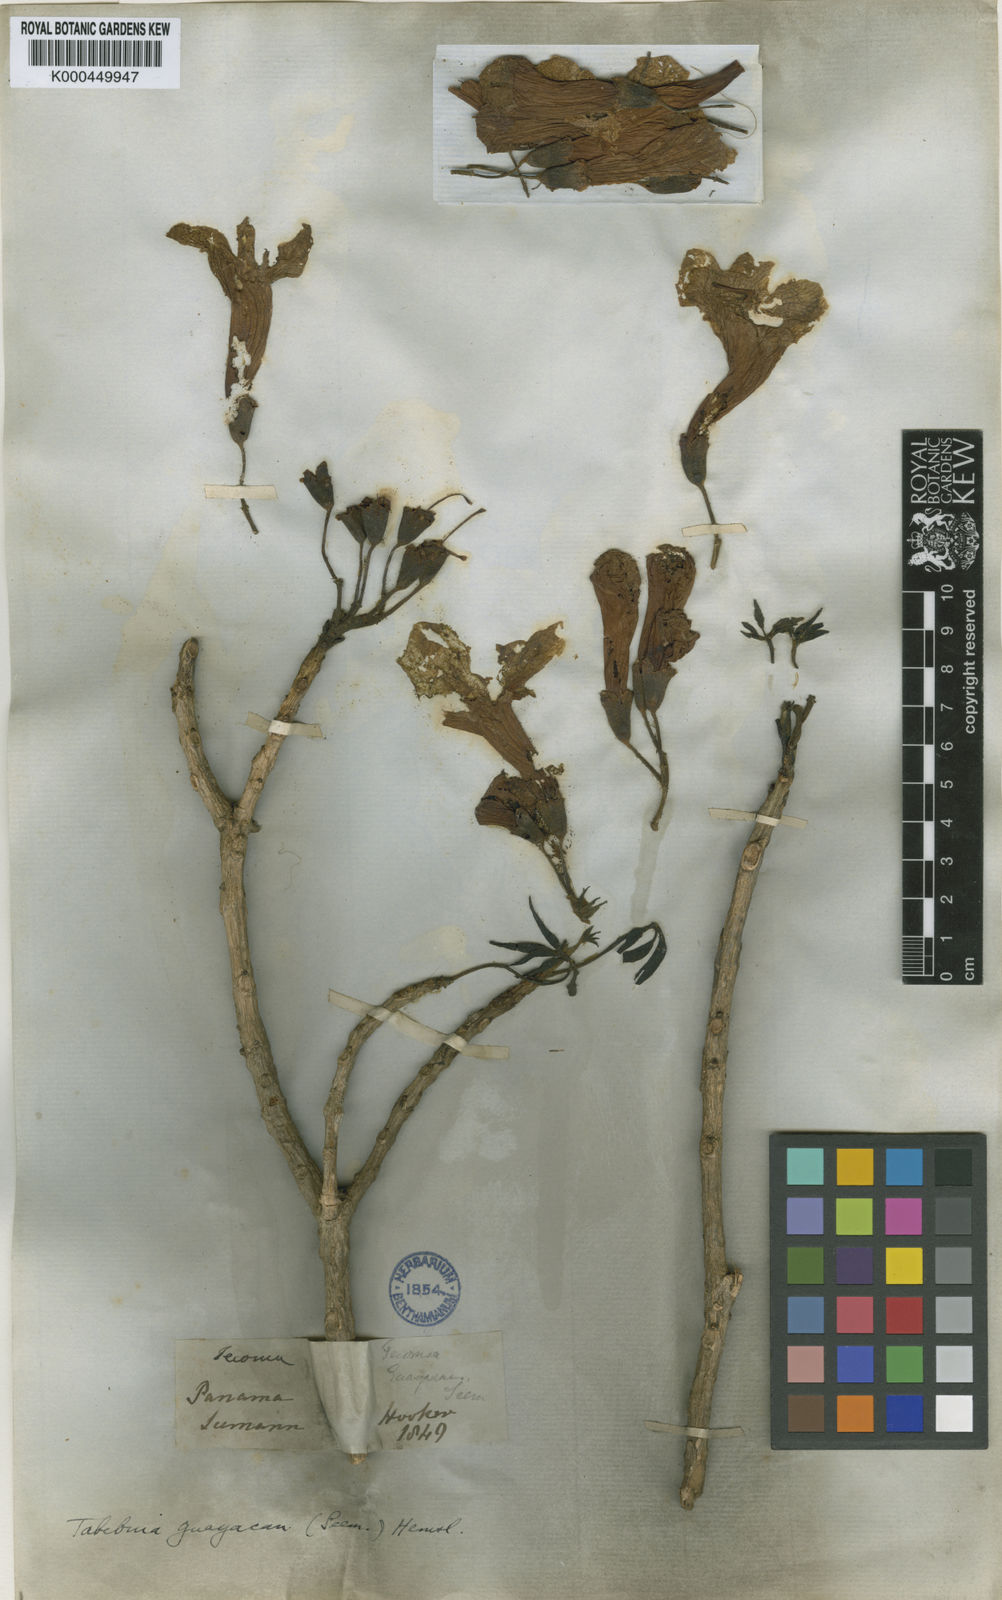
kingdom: Plantae
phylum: Tracheophyta
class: Magnoliopsida
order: Lamiales
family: Bignoniaceae
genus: Handroanthus
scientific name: Handroanthus guayacan
